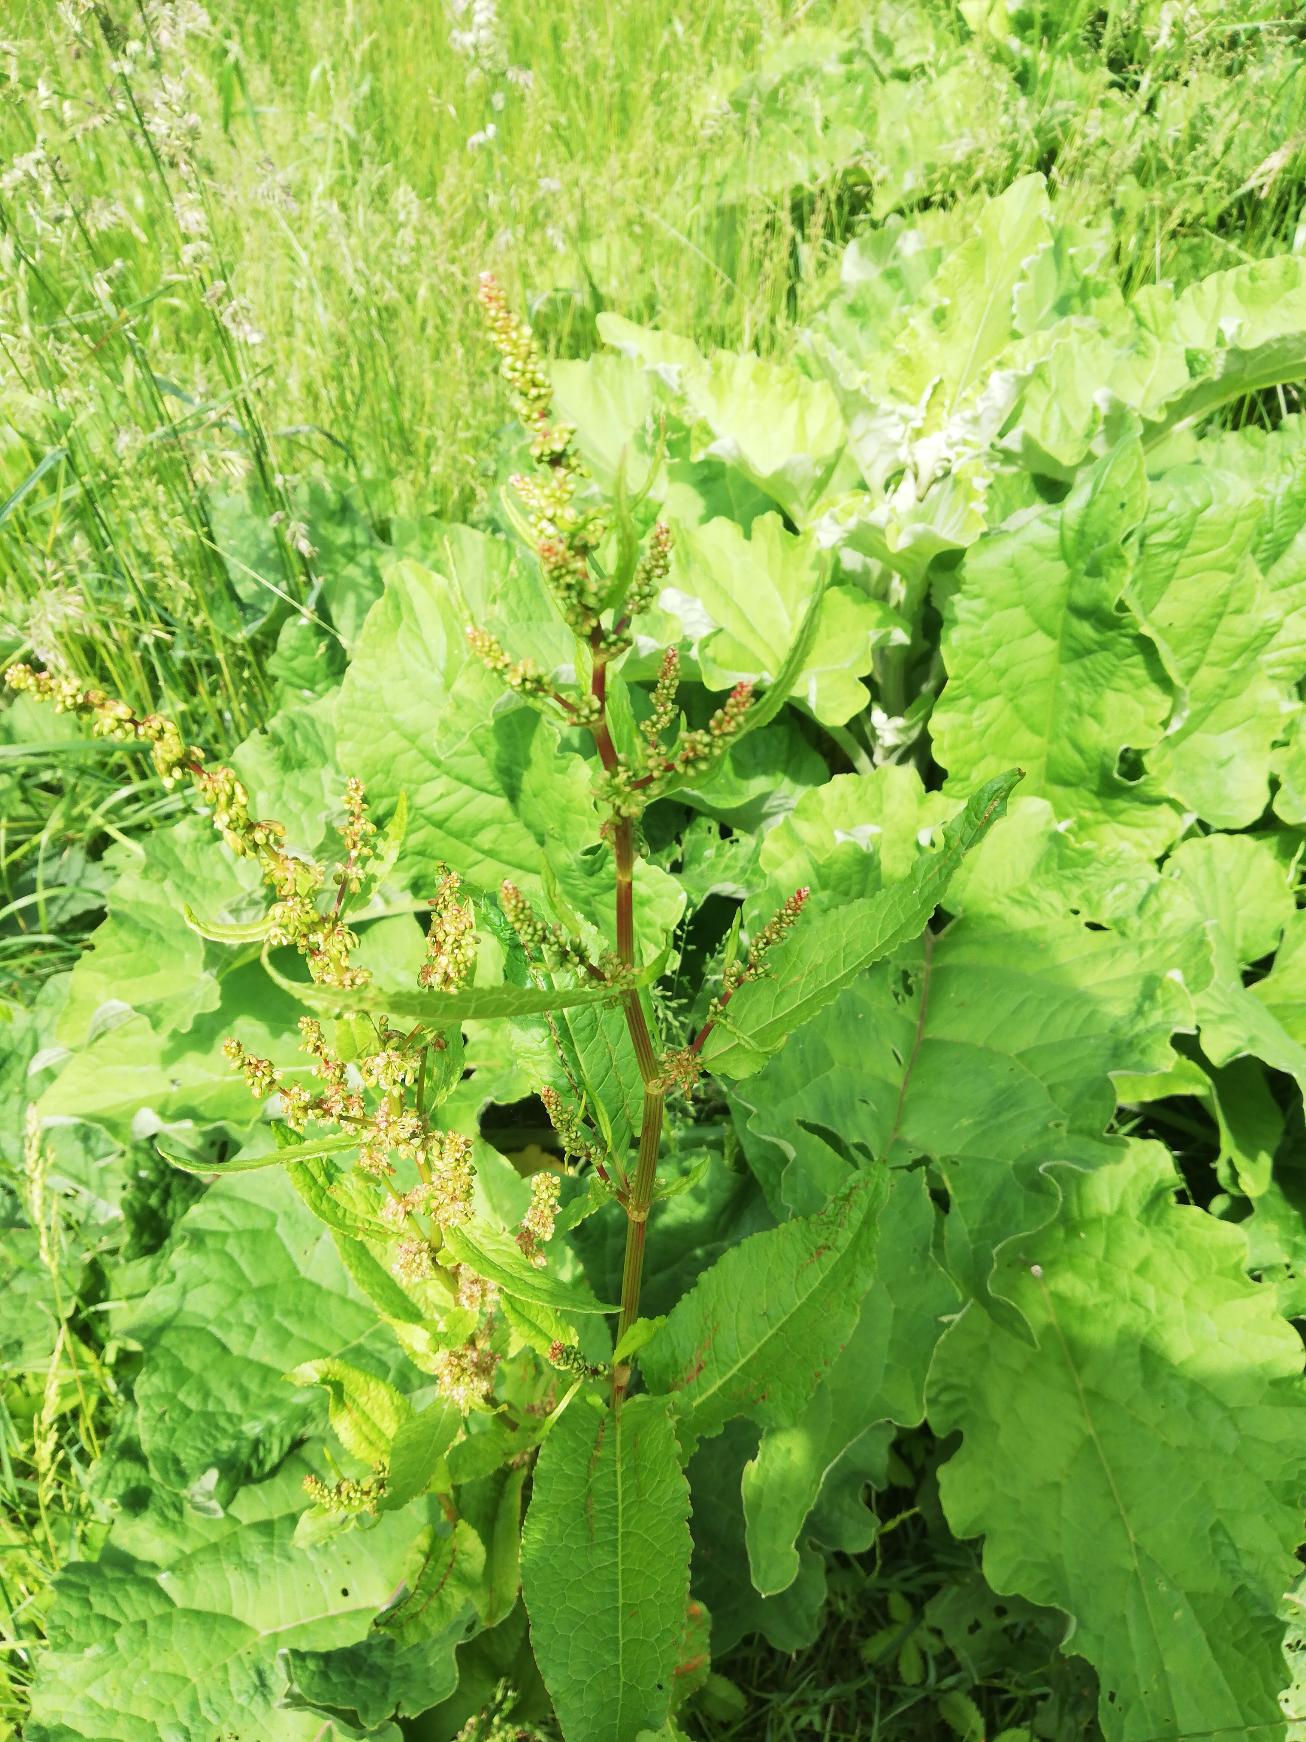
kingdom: Plantae
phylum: Tracheophyta
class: Magnoliopsida
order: Fabales
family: Fabaceae
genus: Vicia
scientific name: Vicia sativa
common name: Foder-vikke (underart)
